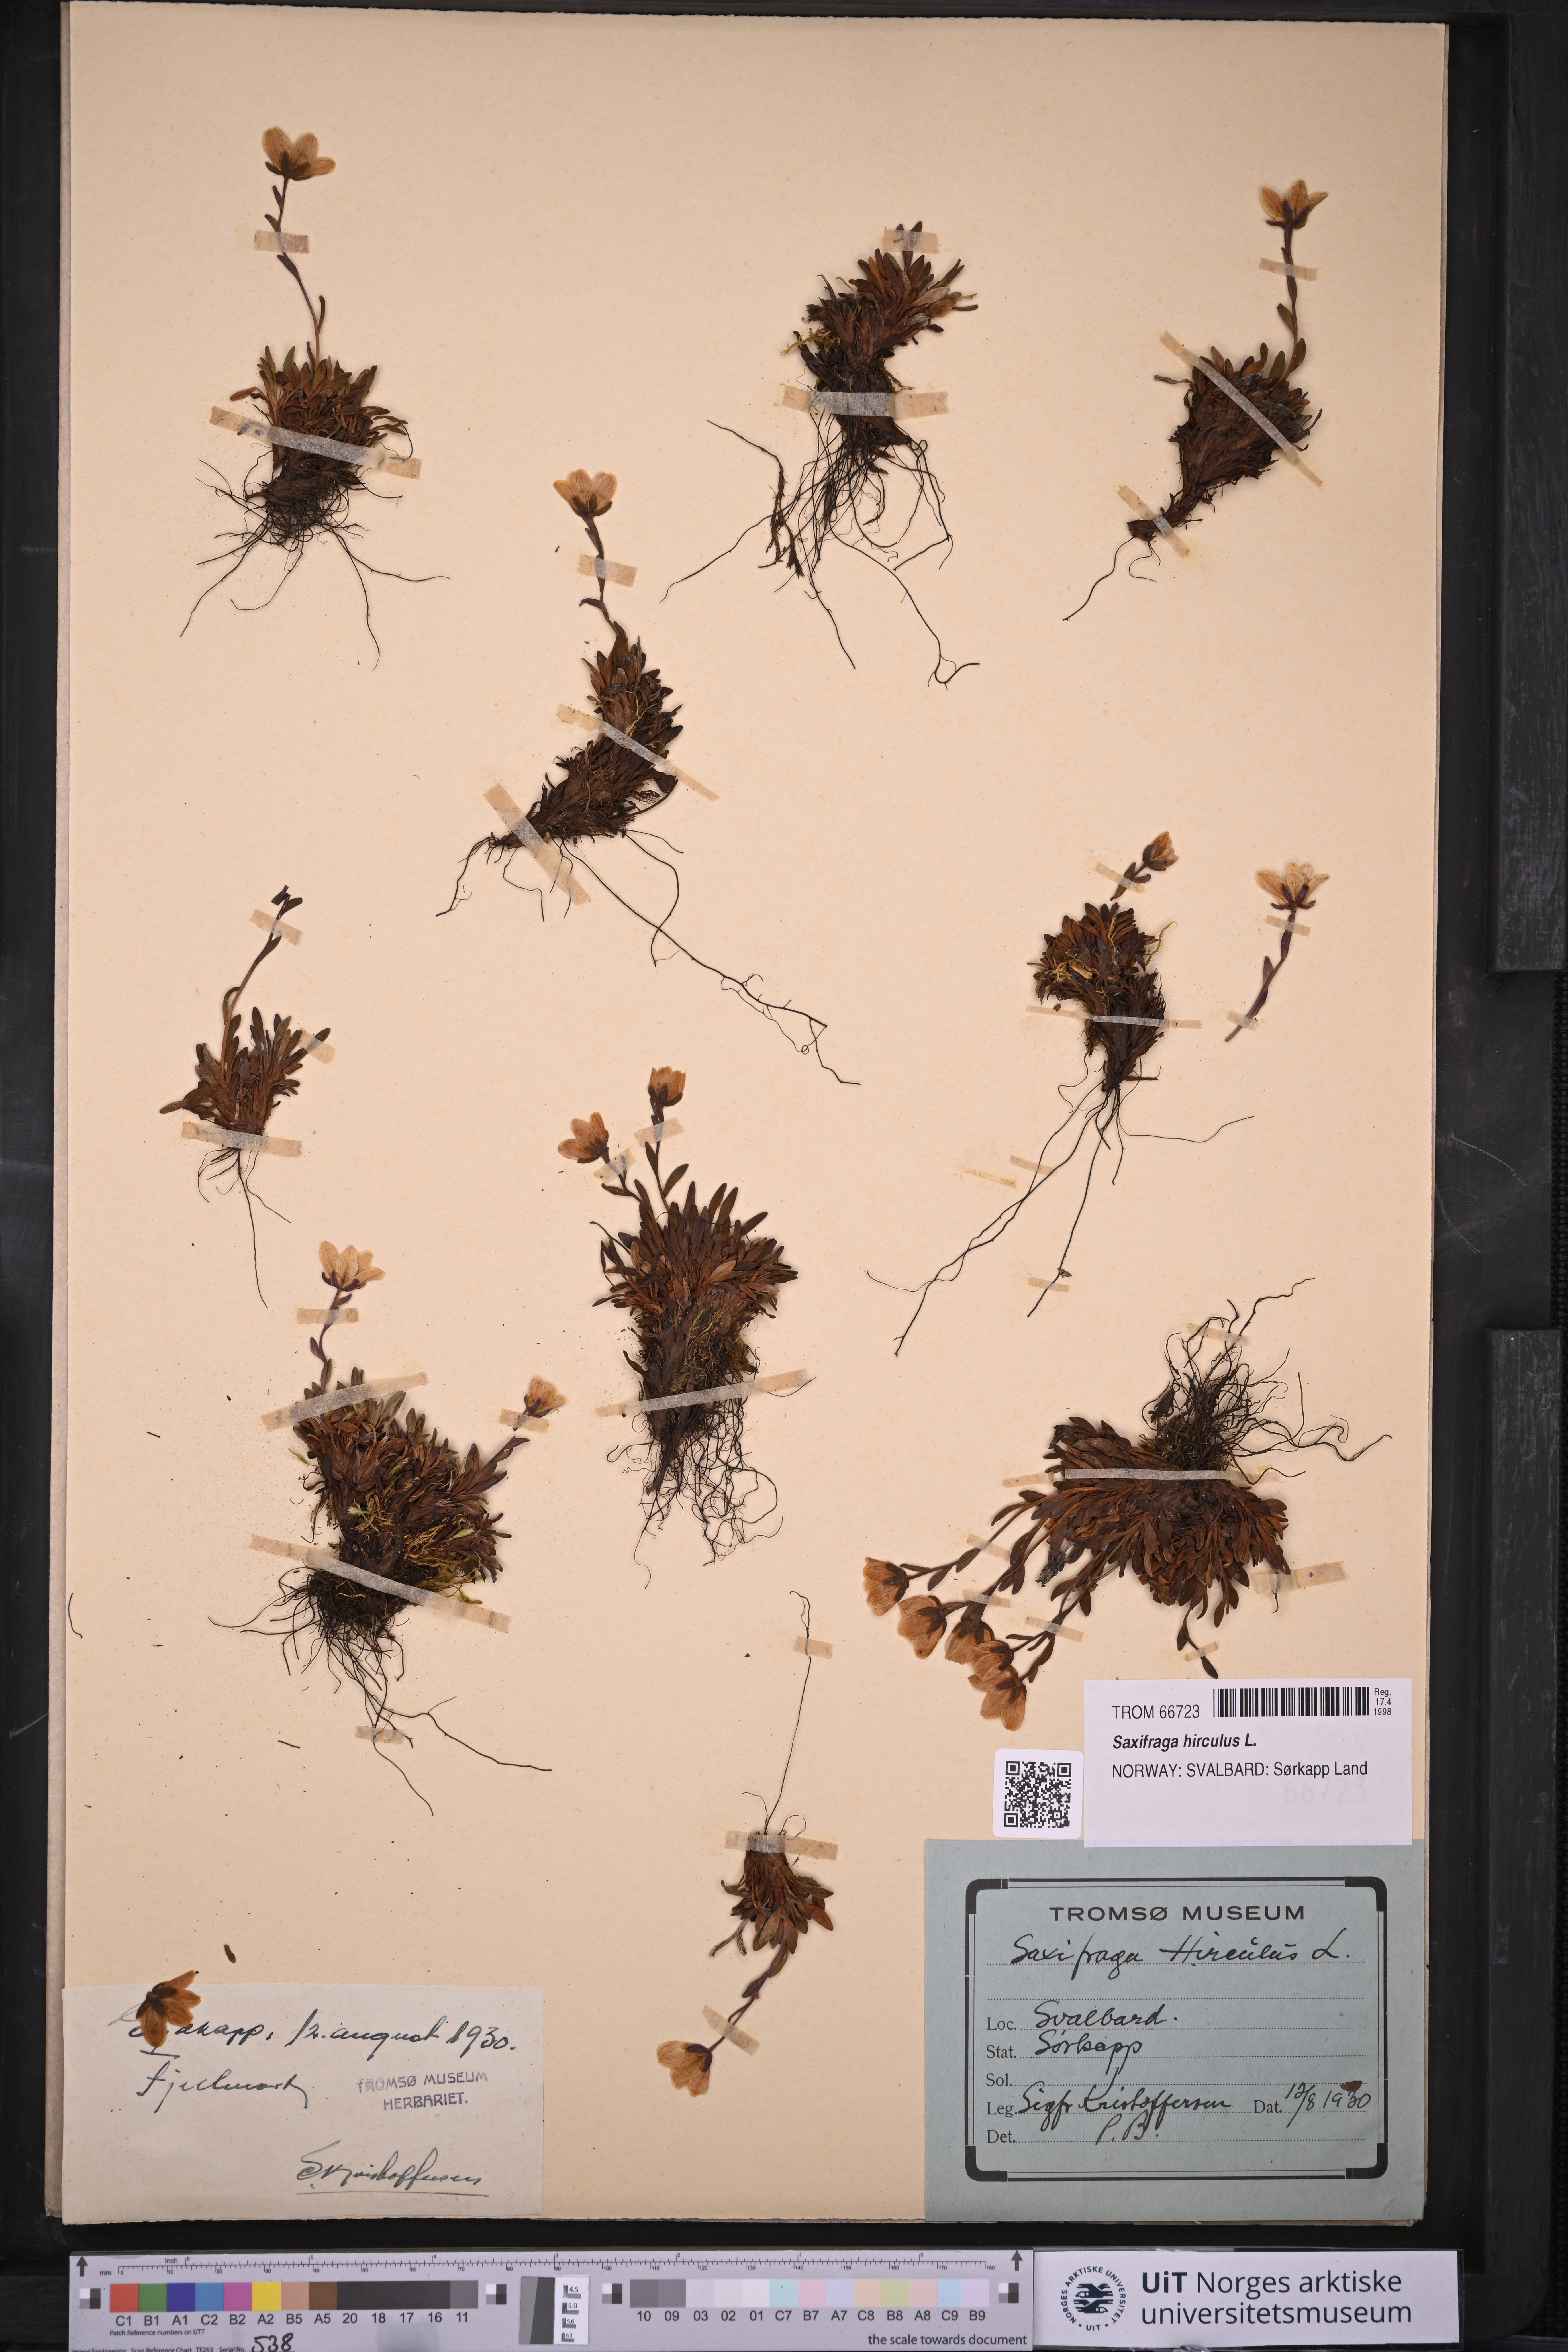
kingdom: Plantae
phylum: Tracheophyta
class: Magnoliopsida
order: Saxifragales
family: Saxifragaceae
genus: Saxifraga
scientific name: Saxifraga hirculus
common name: Yellow marsh saxifrage
